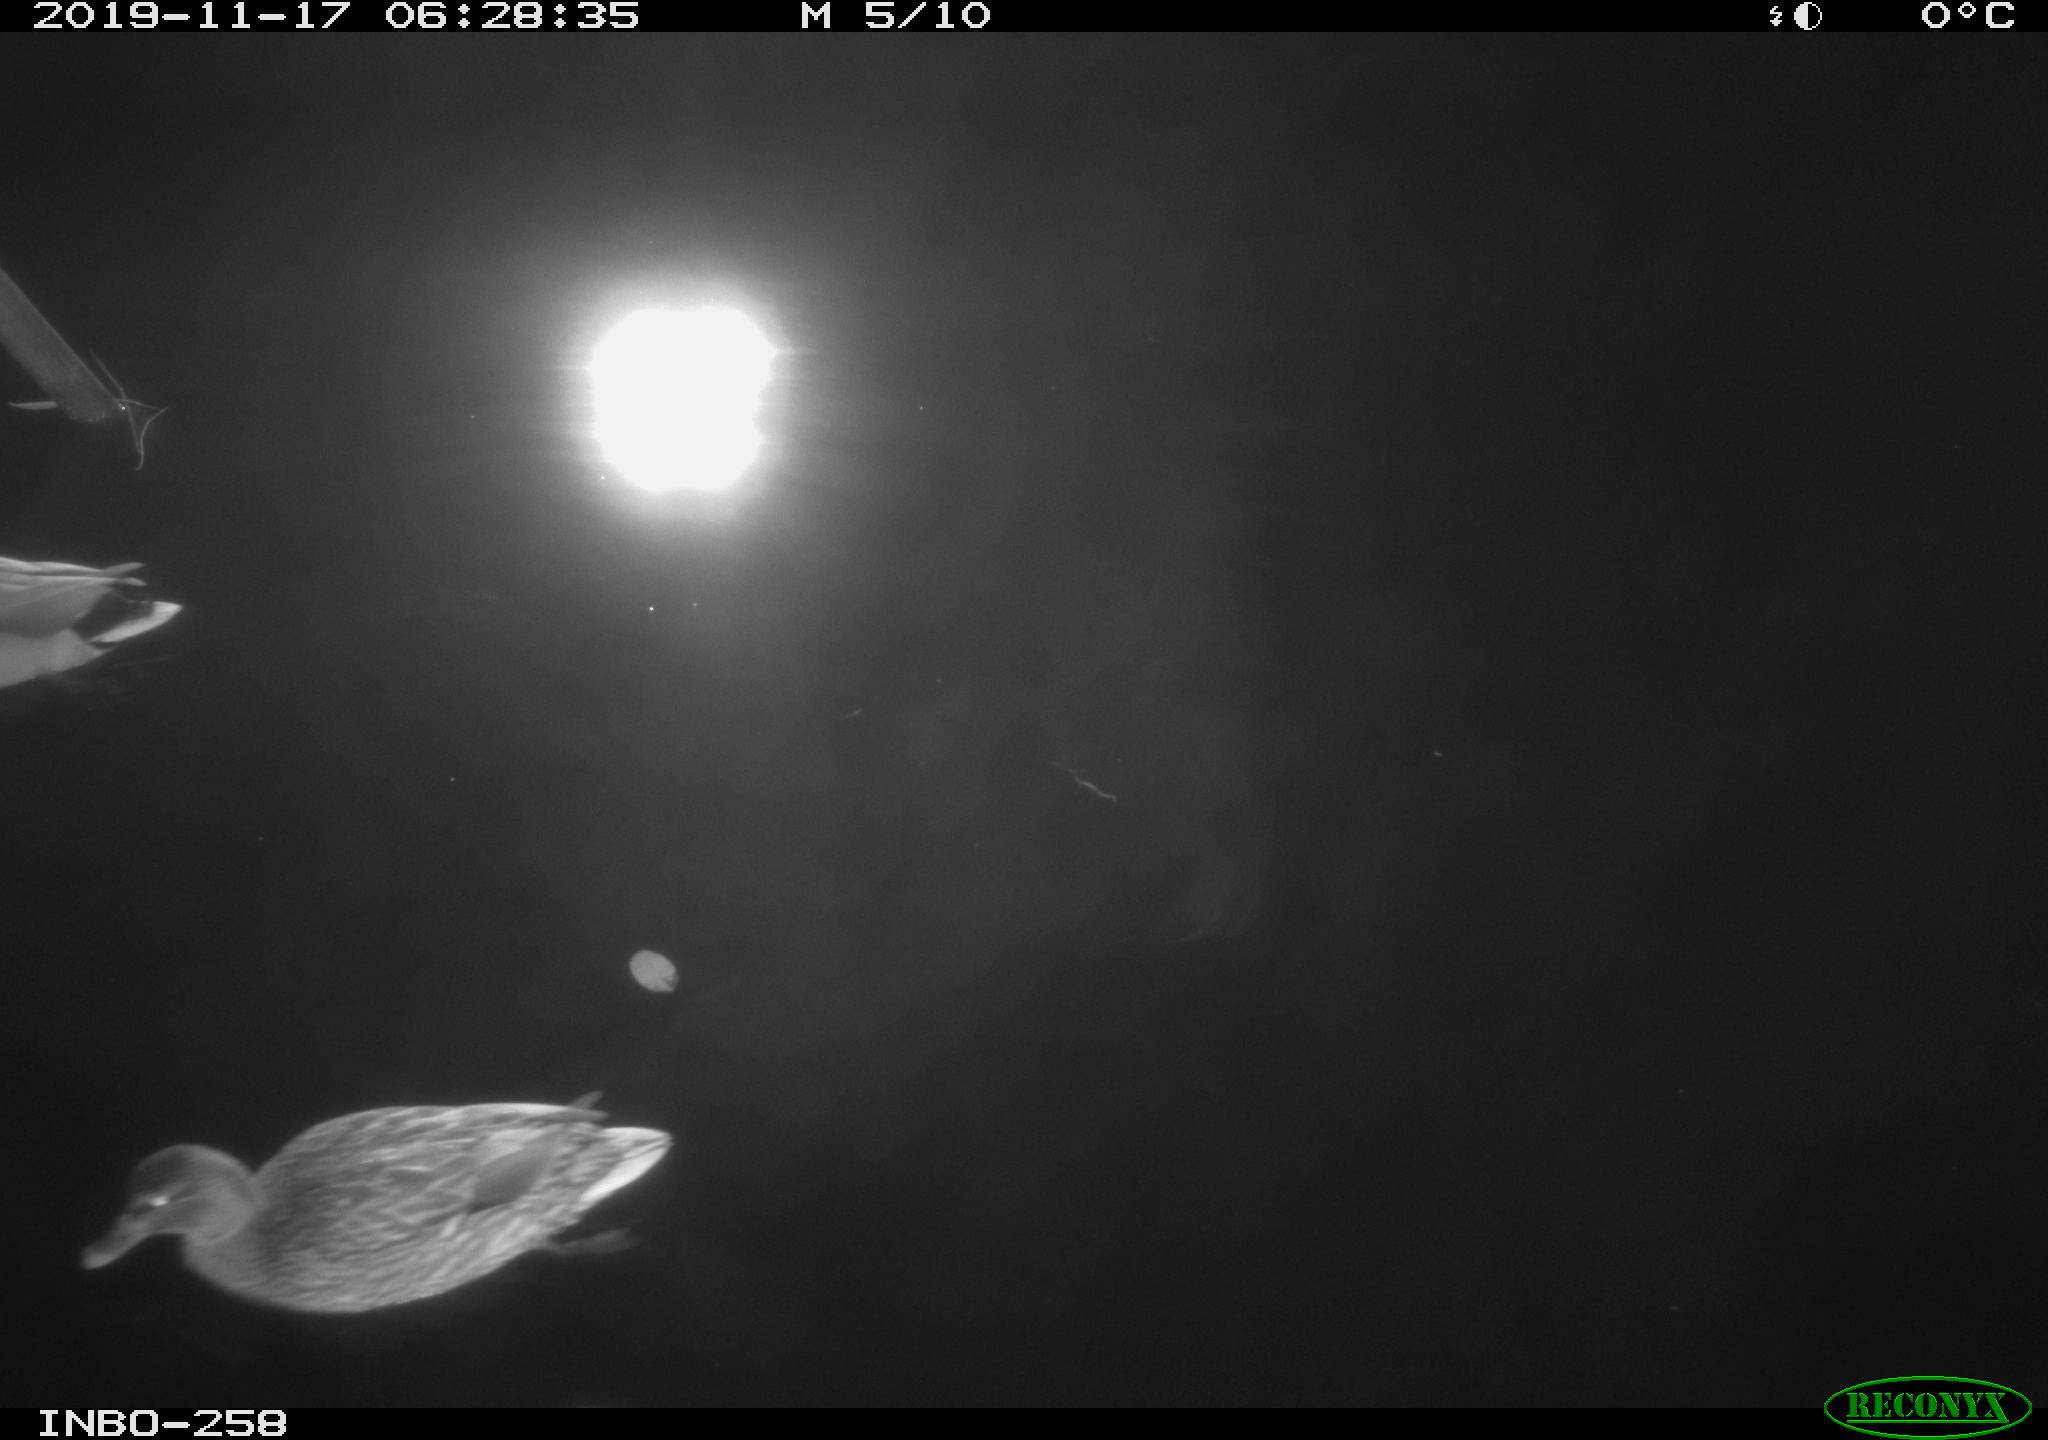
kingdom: Animalia
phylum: Chordata
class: Aves
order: Anseriformes
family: Anatidae
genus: Anas
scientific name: Anas platyrhynchos
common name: Mallard
